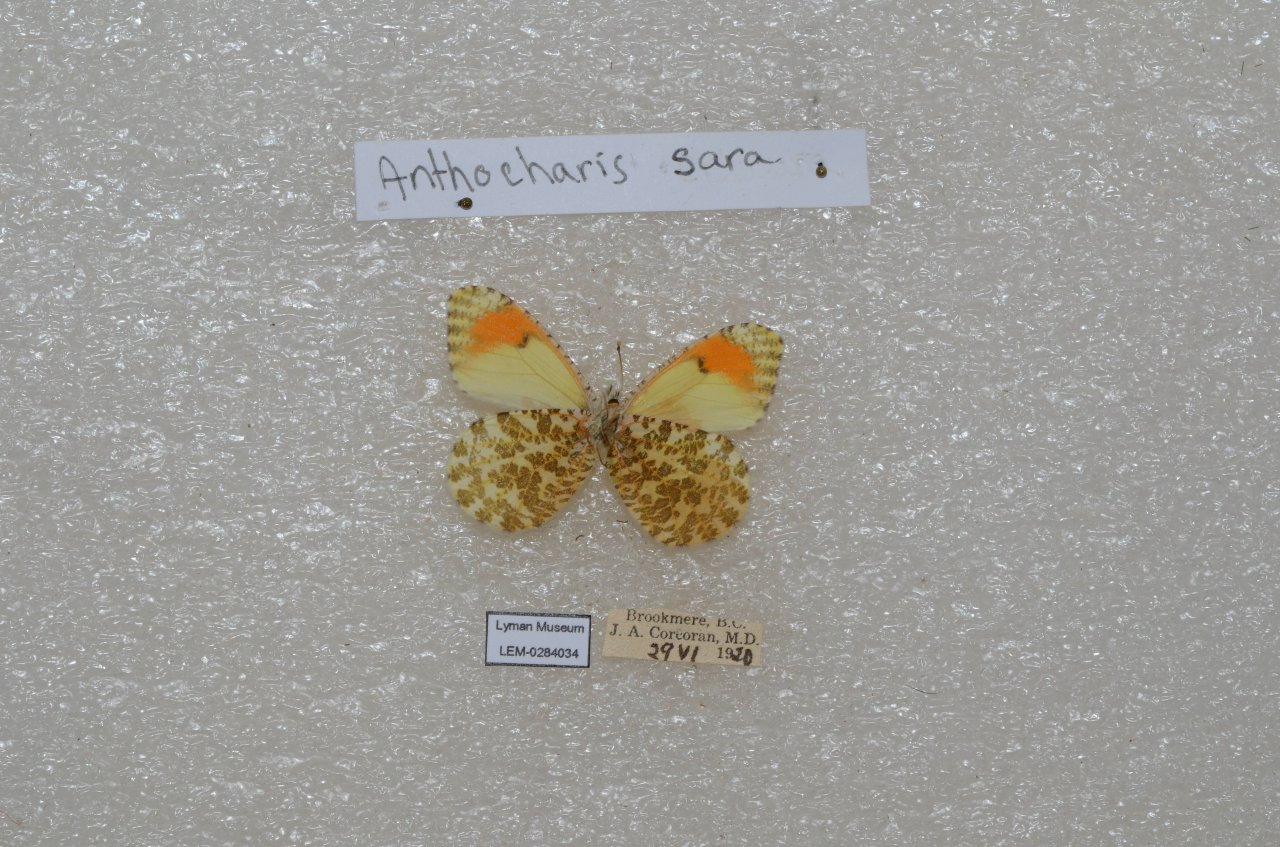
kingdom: Animalia
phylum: Arthropoda
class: Insecta
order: Lepidoptera
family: Pieridae
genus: Anthocharis
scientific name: Anthocharis sara
